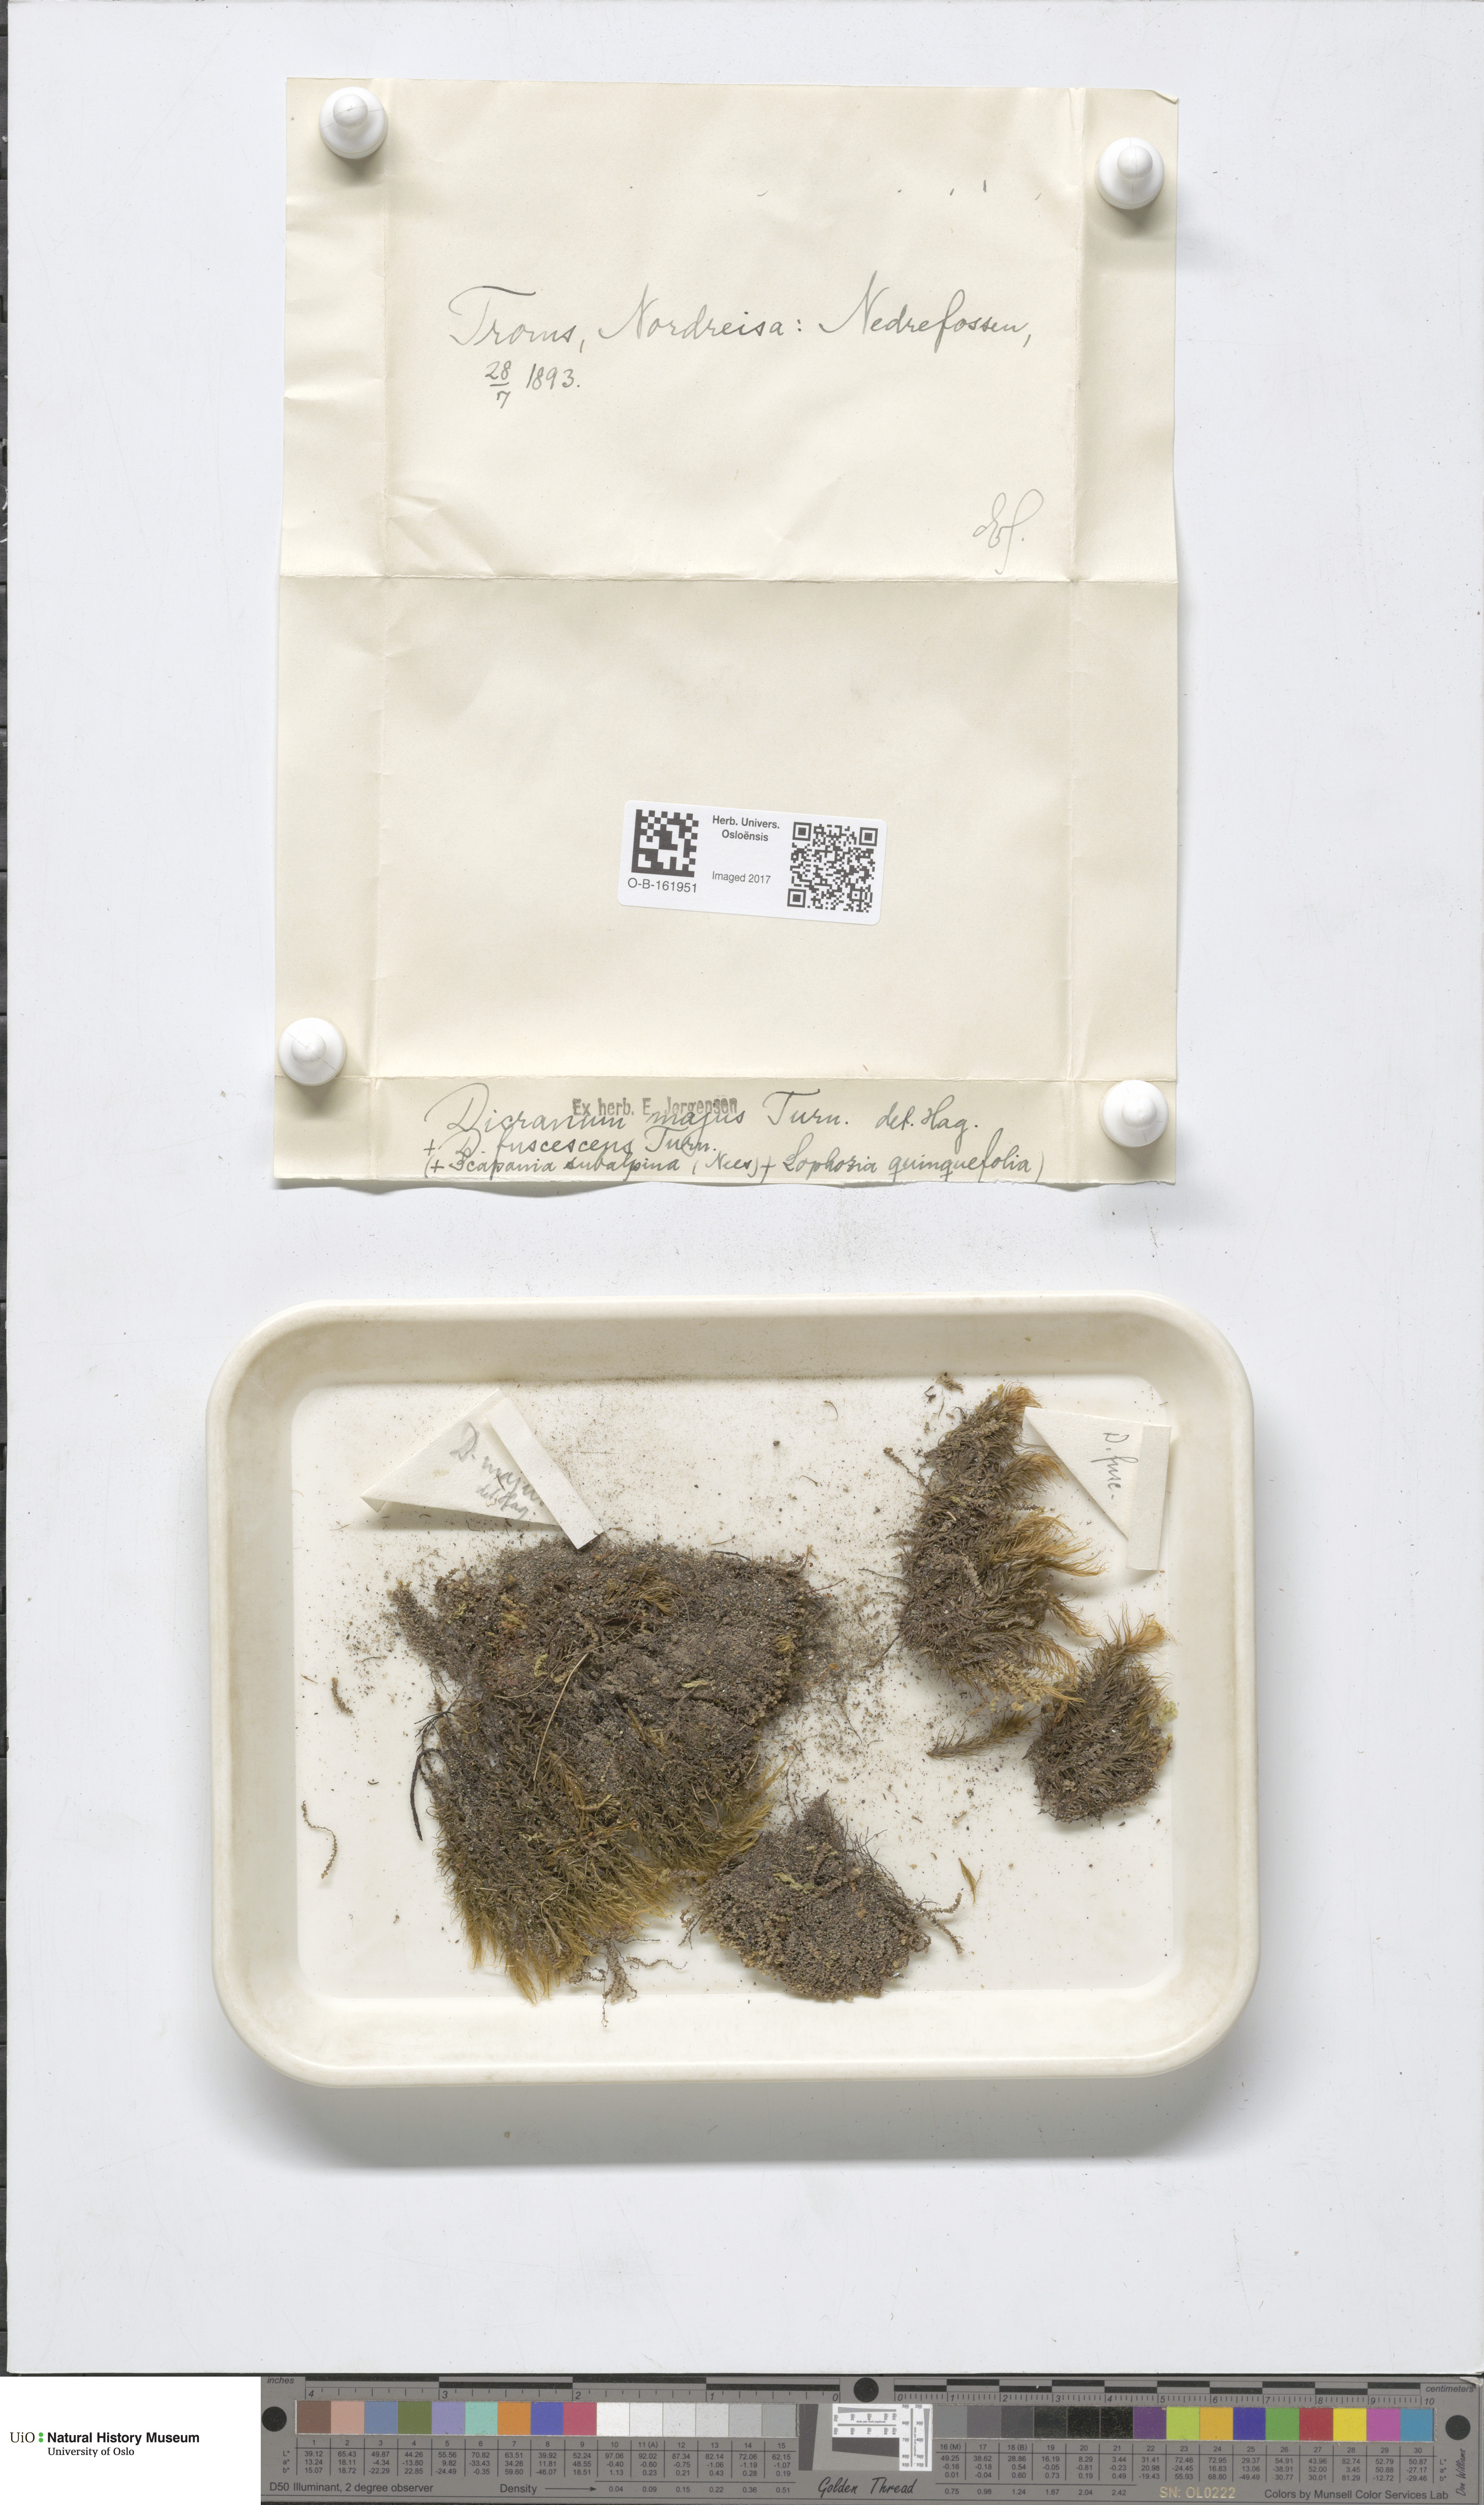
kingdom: Plantae
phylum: Bryophyta
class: Bryopsida
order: Dicranales
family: Dicranaceae
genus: Dicranum
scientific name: Dicranum majus
